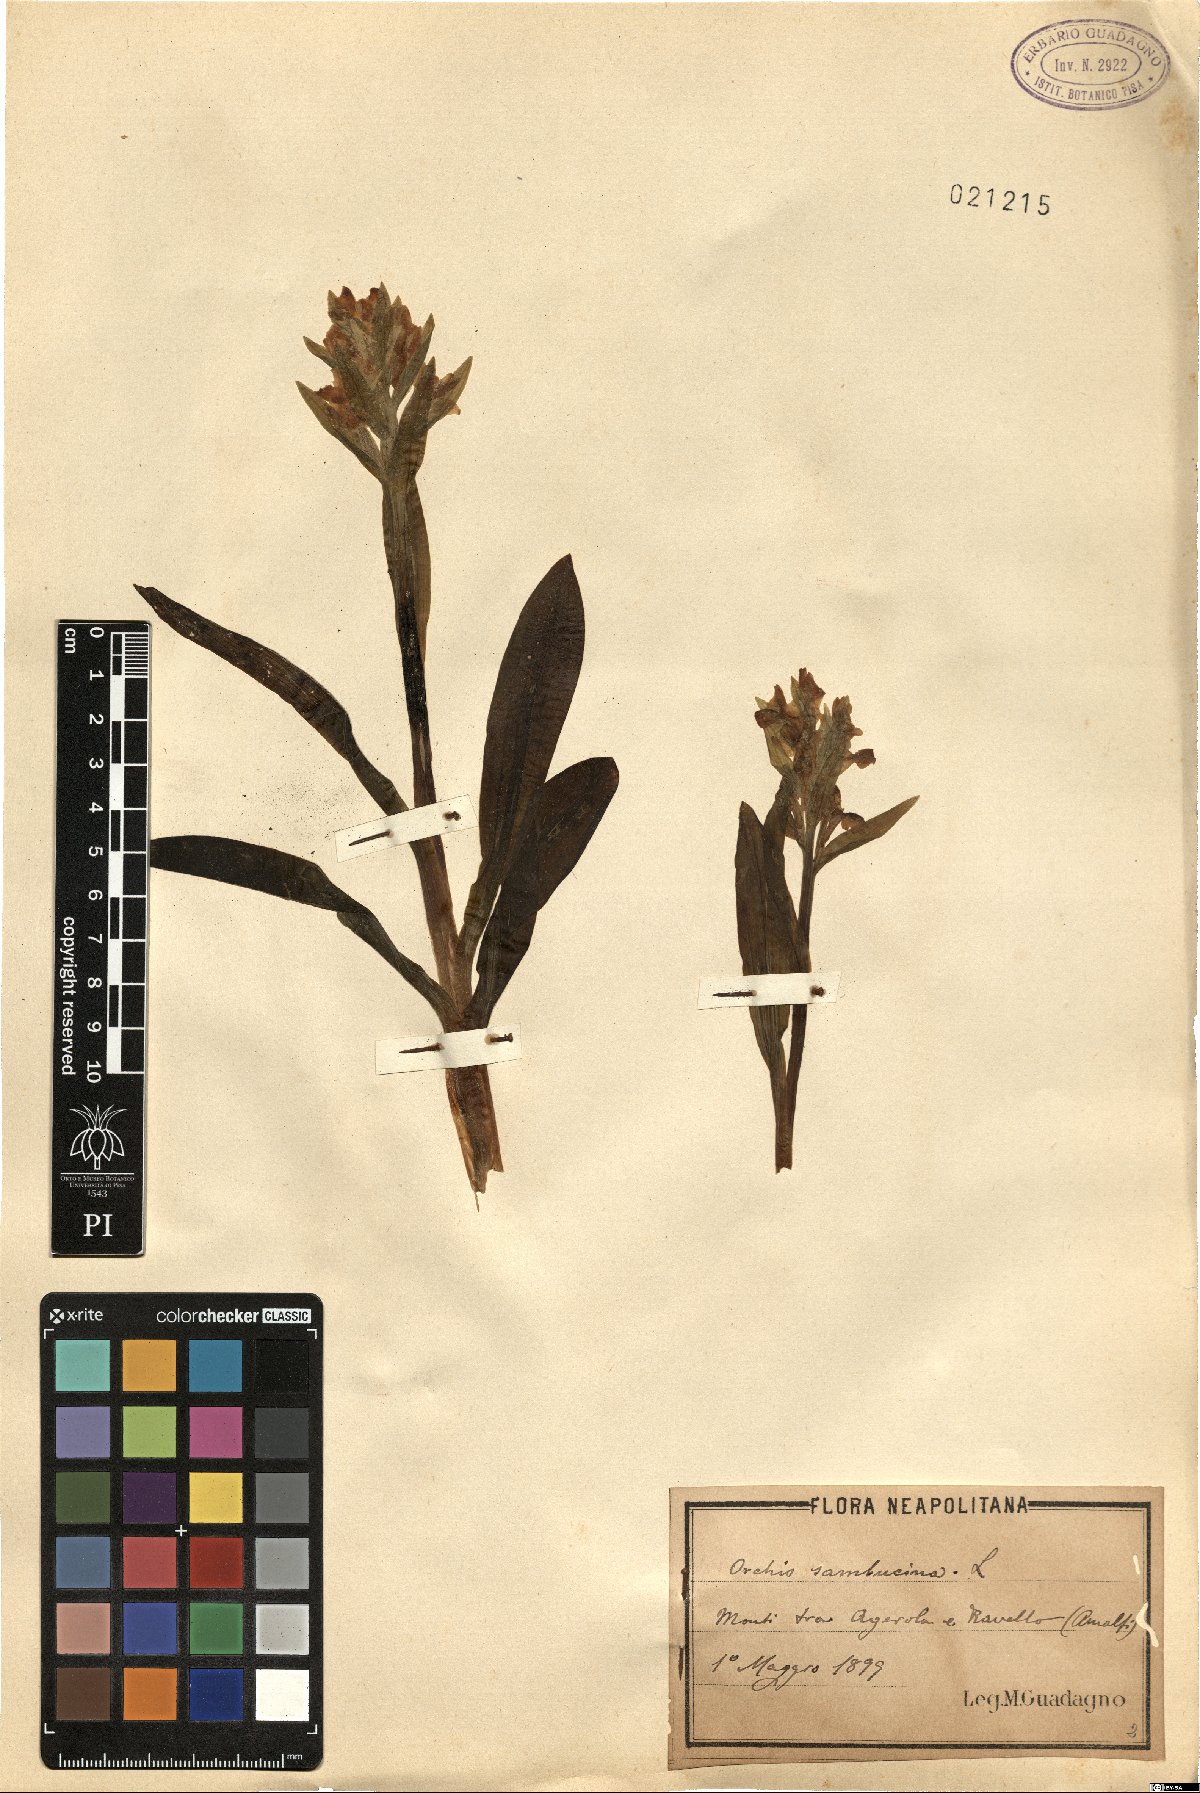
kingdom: Plantae
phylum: Tracheophyta
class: Liliopsida
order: Asparagales
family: Orchidaceae
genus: Dactylorhiza
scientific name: Dactylorhiza sambucina
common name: Elder-flowered orchid
